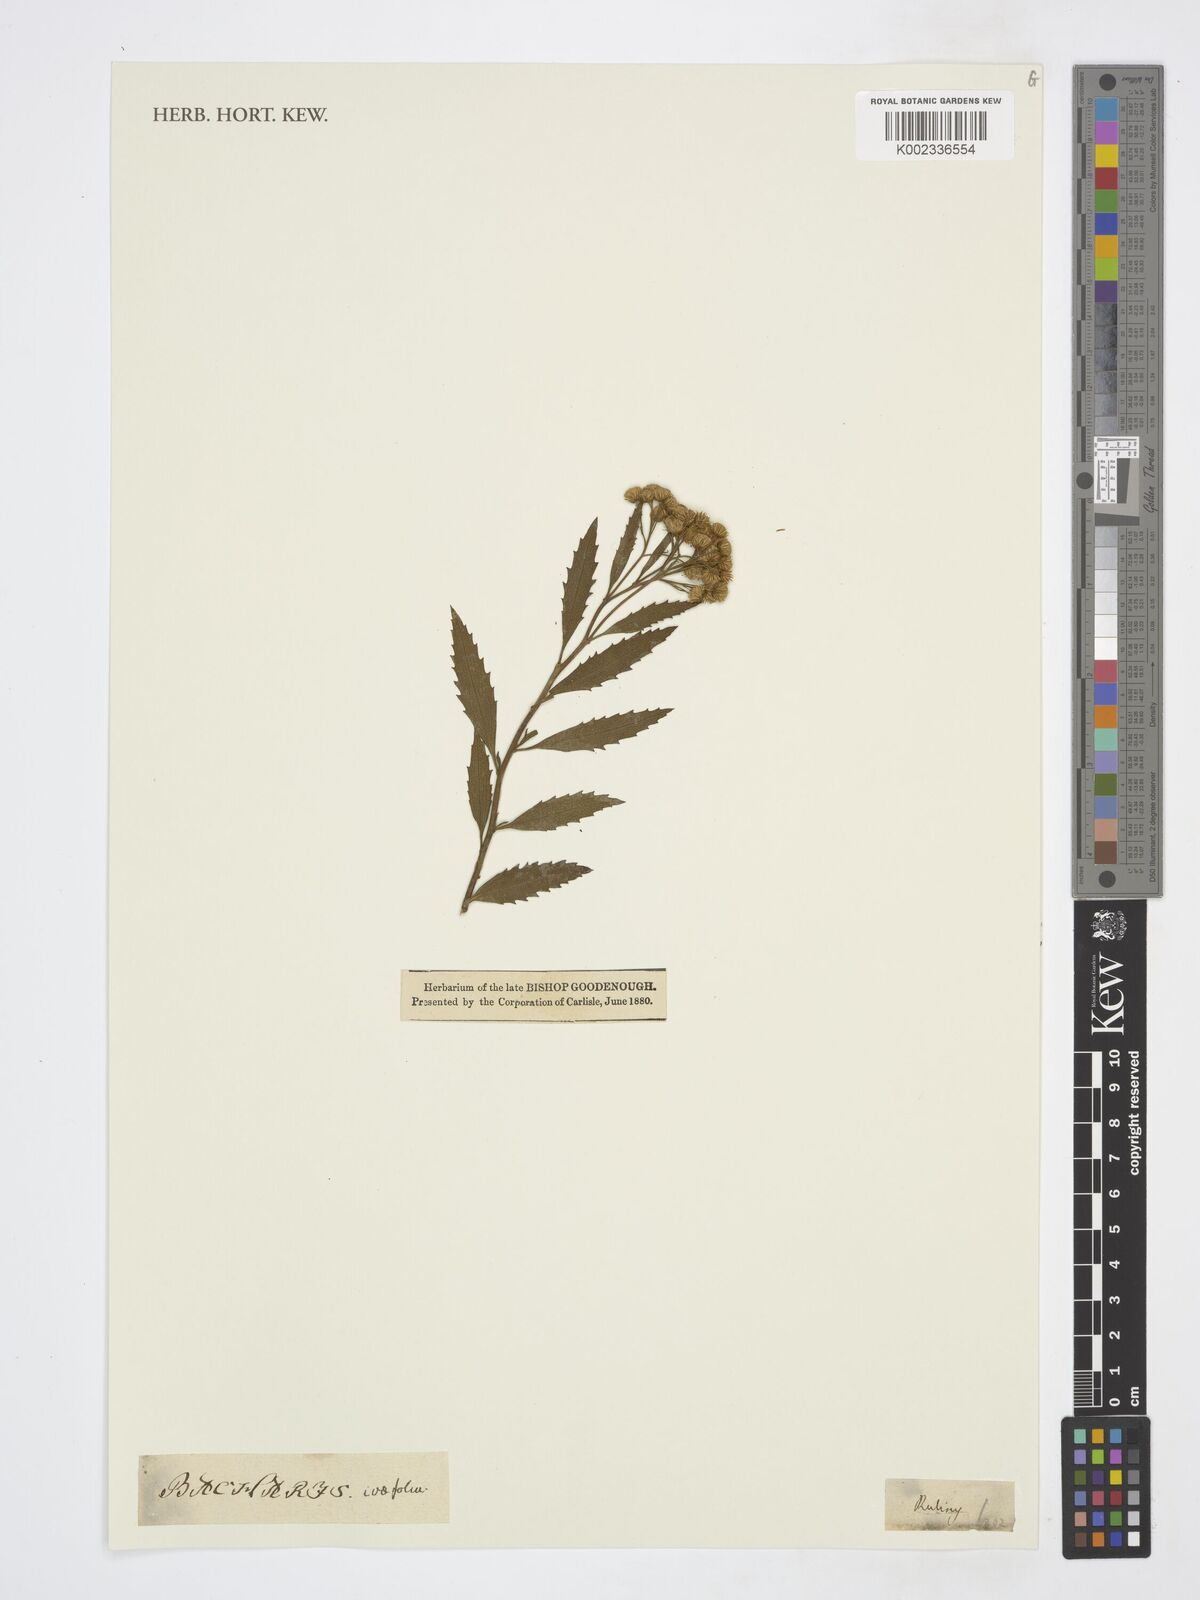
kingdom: Plantae
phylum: Tracheophyta
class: Magnoliopsida
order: Asterales
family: Asteraceae
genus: Nidorella
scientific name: Nidorella ivifolia
